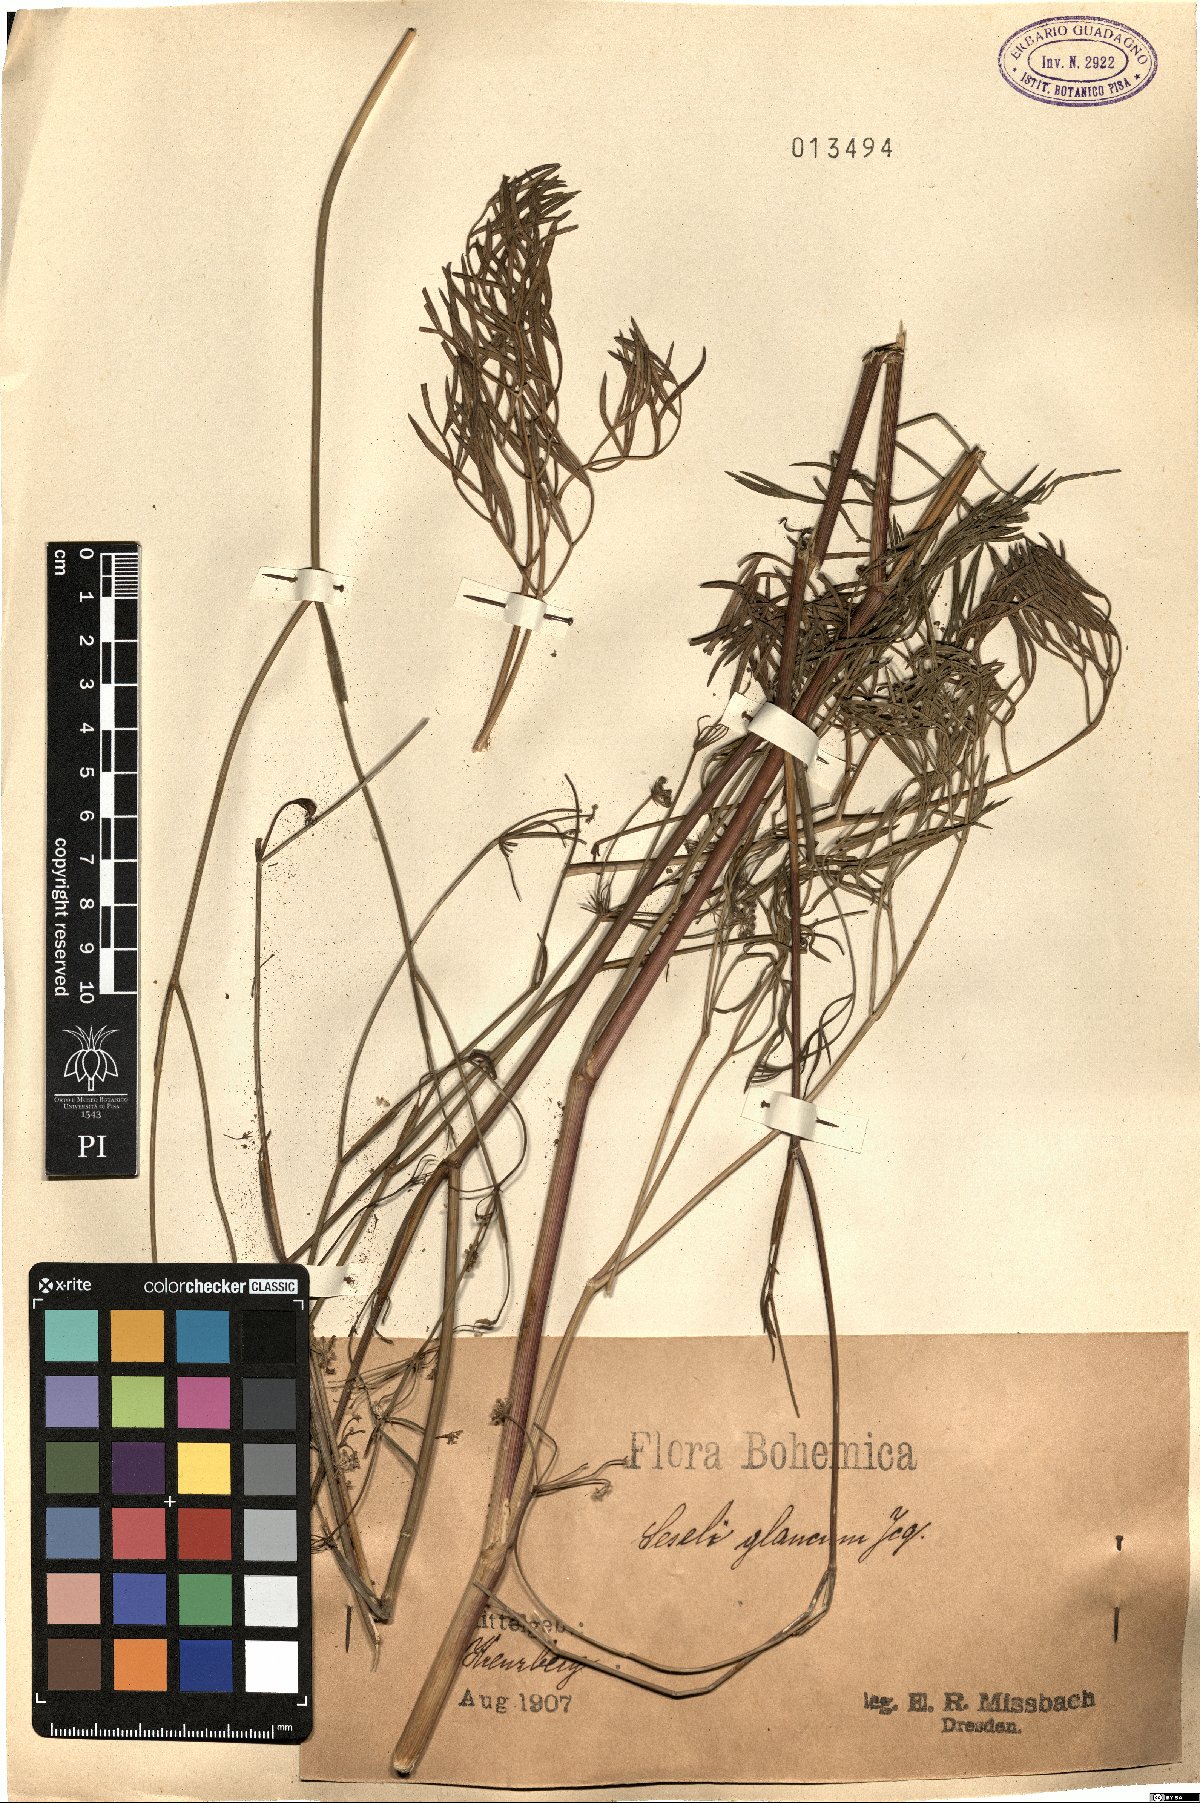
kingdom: Plantae
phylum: Tracheophyta
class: Magnoliopsida
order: Apiales
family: Apiaceae
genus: Seseli
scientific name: Seseli montanum
